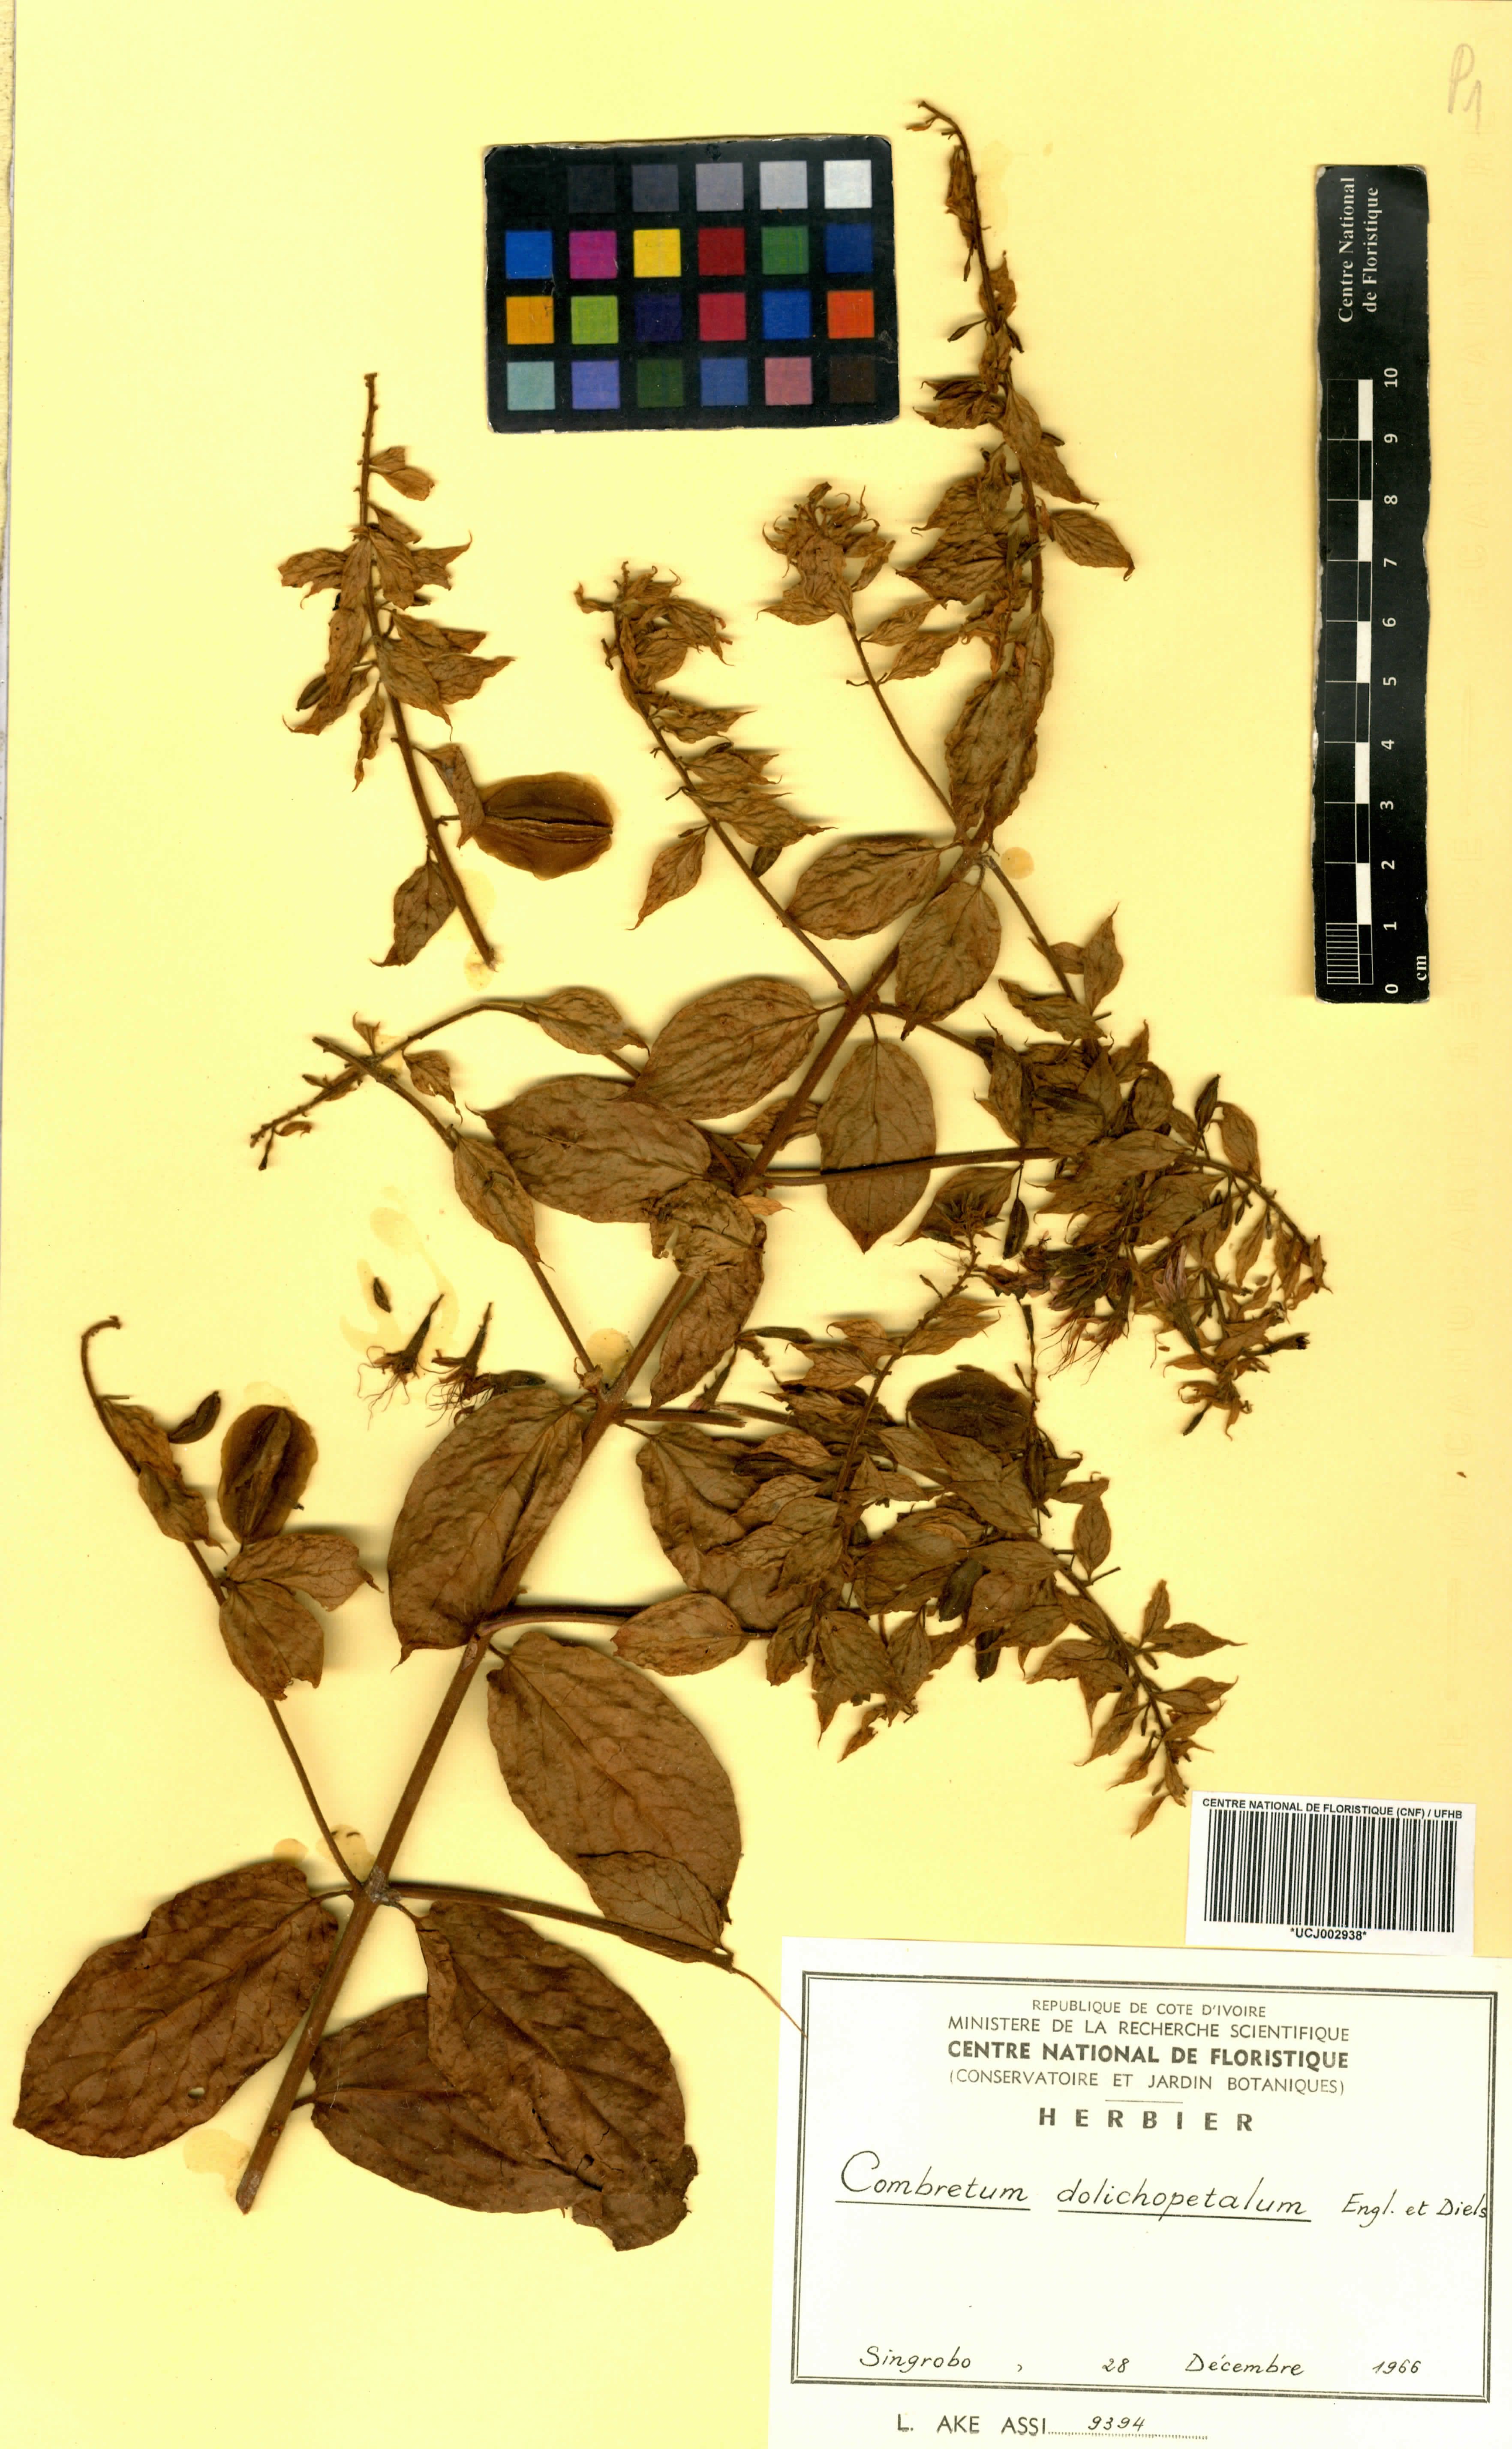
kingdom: Plantae
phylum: Tracheophyta
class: Magnoliopsida
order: Myrtales
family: Combretaceae
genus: Combretum
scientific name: Combretum comosum
